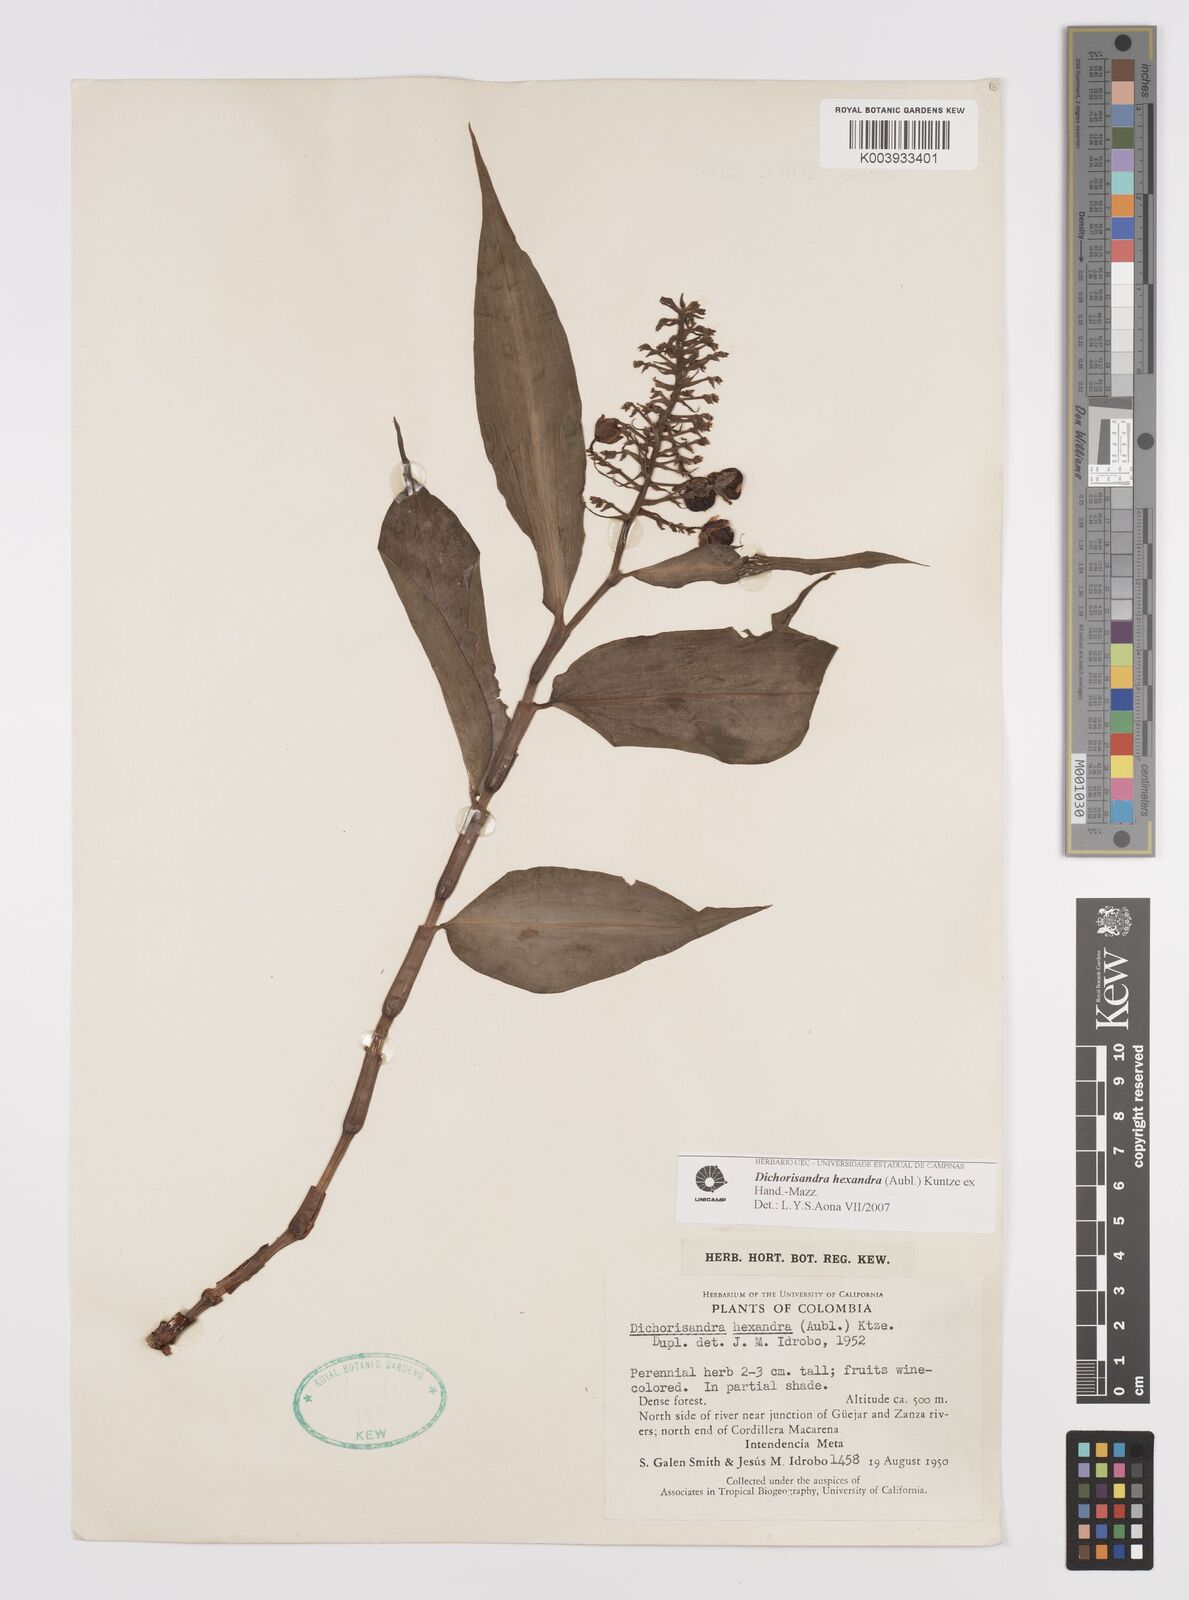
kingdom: Plantae
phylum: Tracheophyta
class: Liliopsida
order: Commelinales
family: Commelinaceae
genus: Dichorisandra
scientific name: Dichorisandra hexandra
